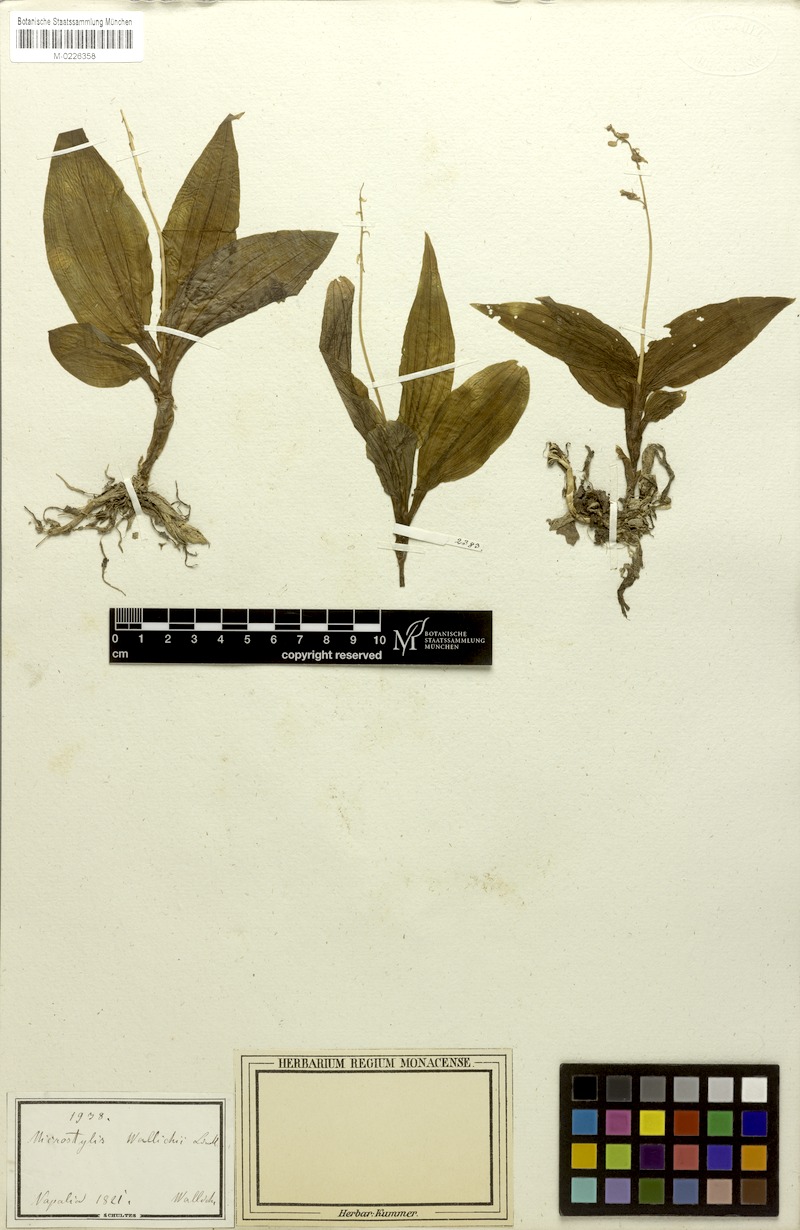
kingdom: Plantae
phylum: Tracheophyta
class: Liliopsida
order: Asparagales
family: Orchidaceae
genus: Crepidium
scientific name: Crepidium acuminatum
